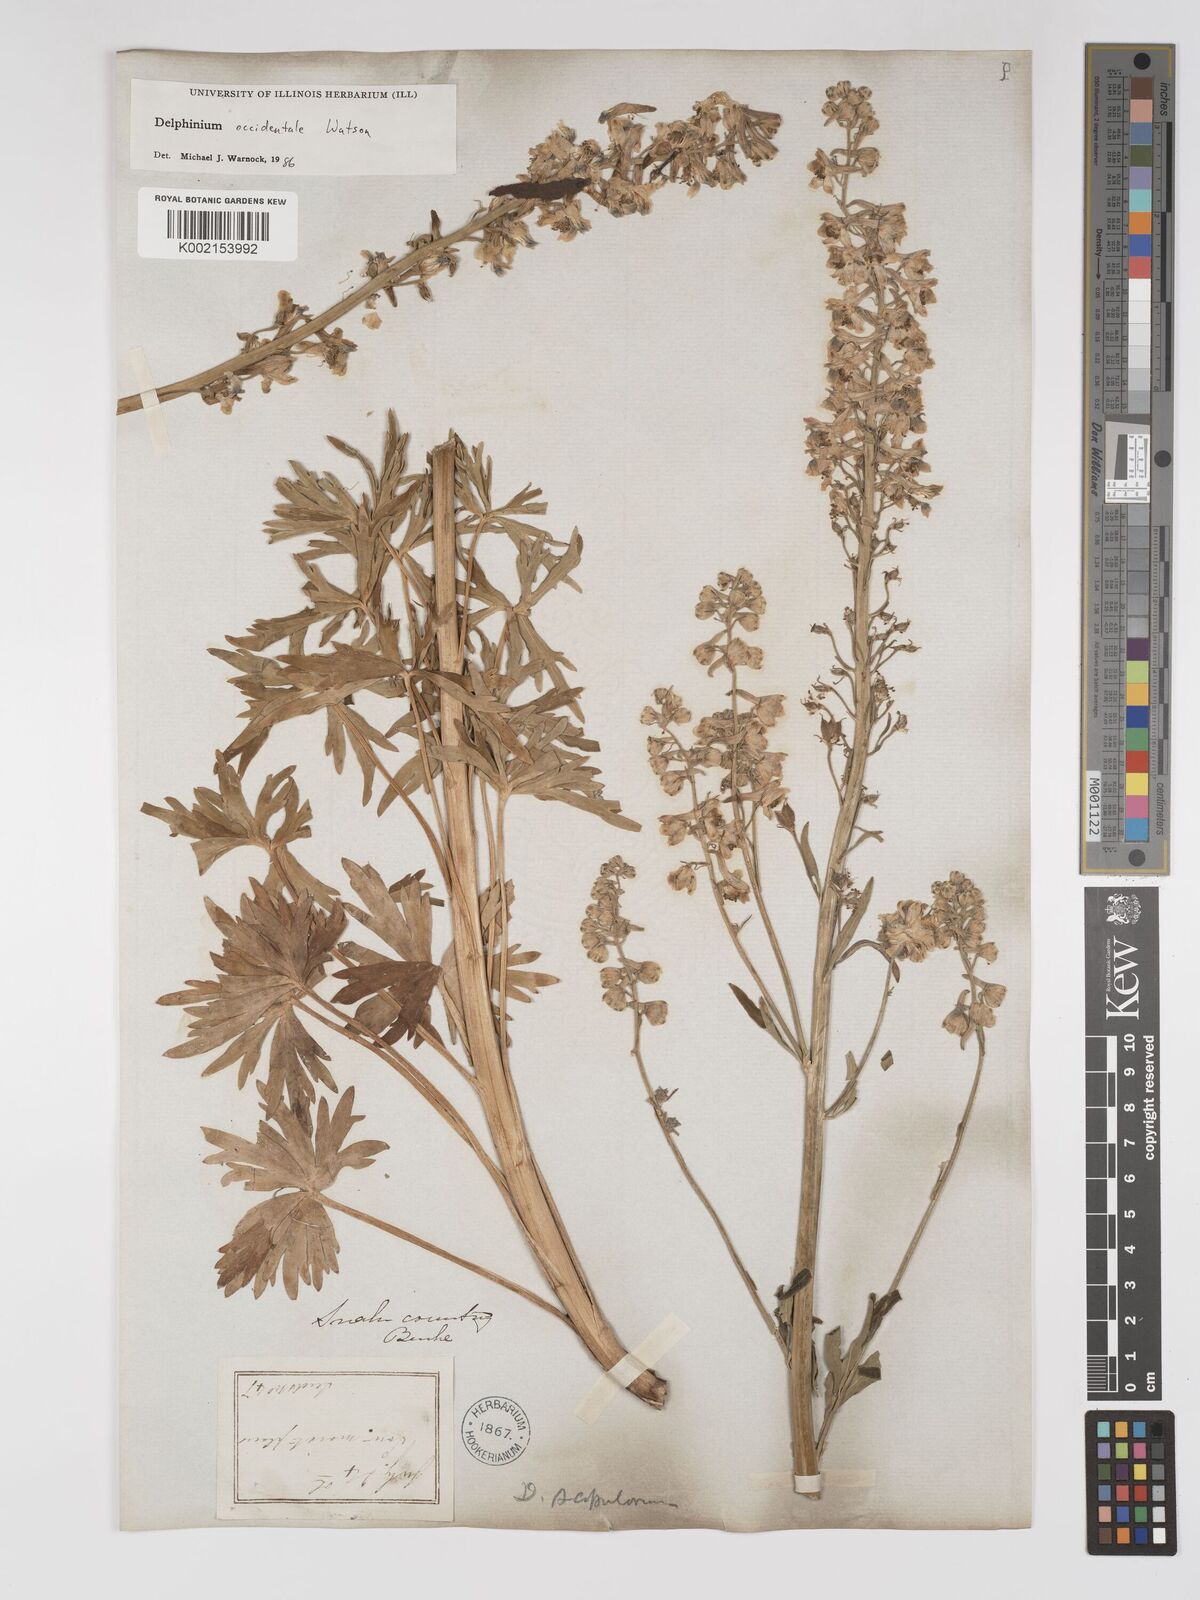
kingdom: Plantae
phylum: Tracheophyta
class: Magnoliopsida
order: Ranunculales
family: Ranunculaceae
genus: Delphinium
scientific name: Delphinium occidentale
